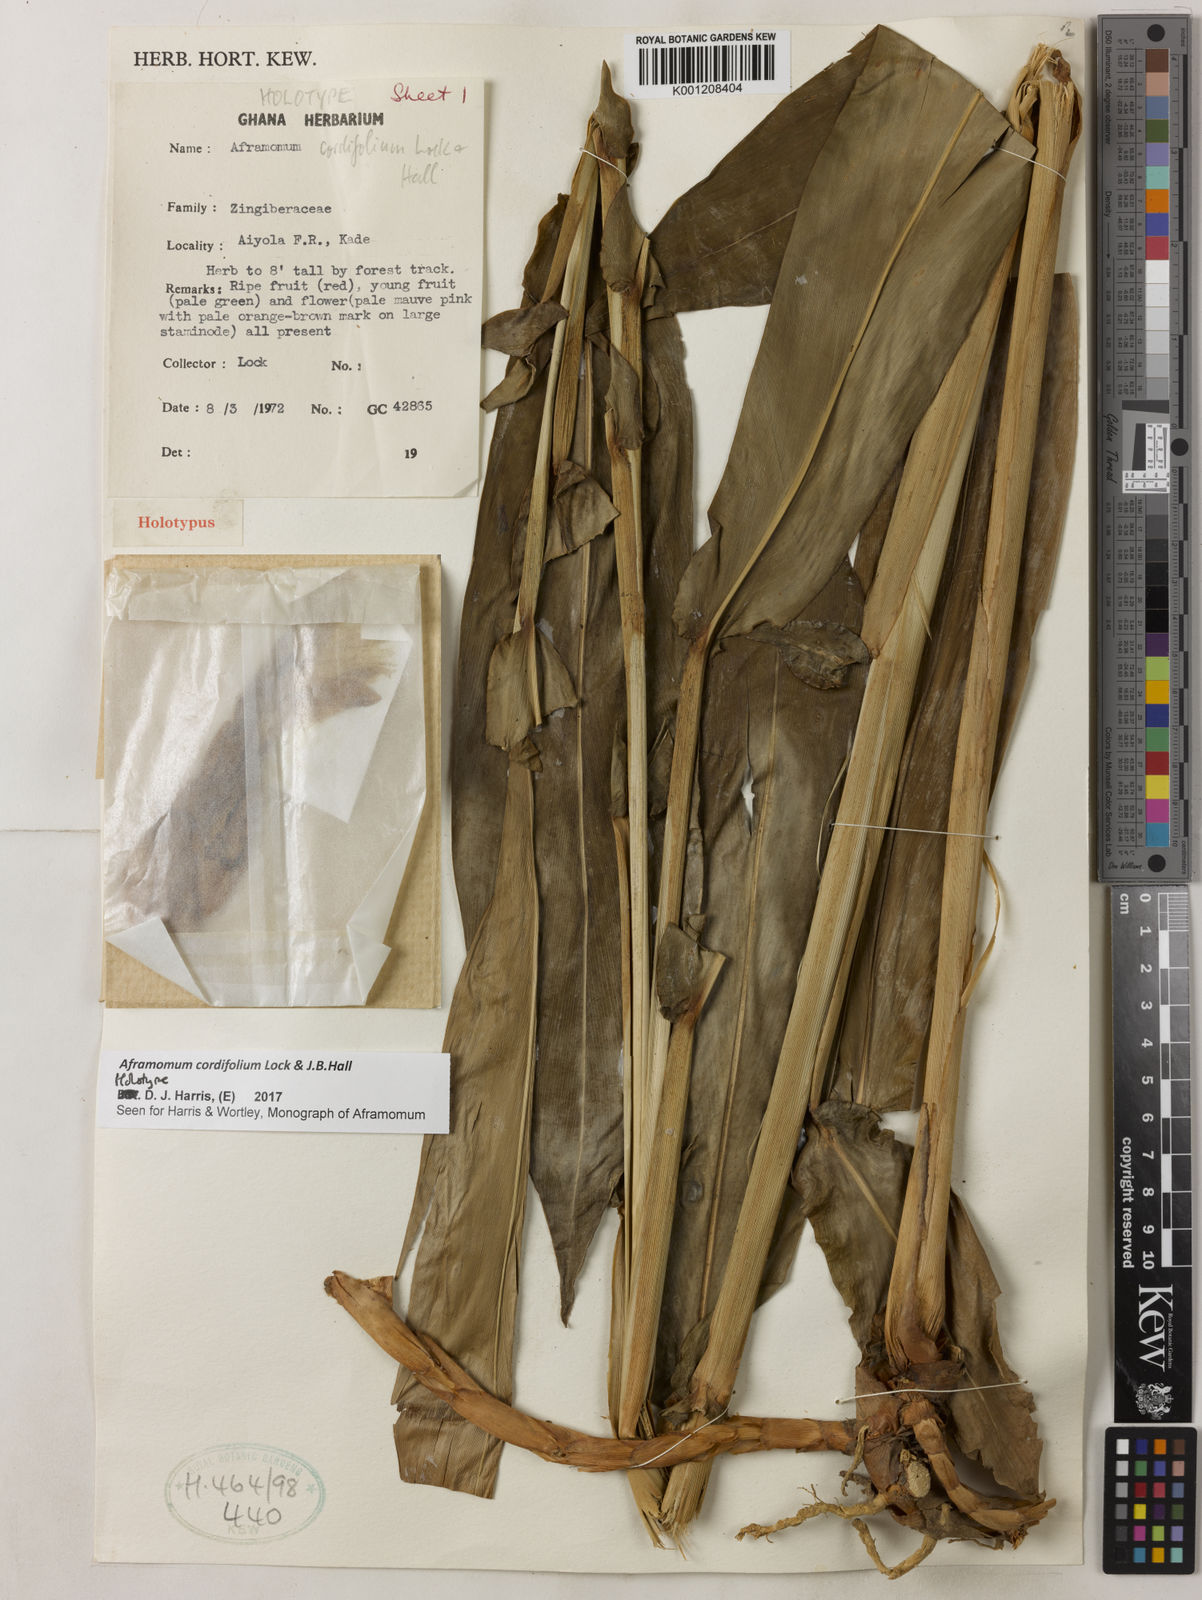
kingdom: Plantae
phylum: Tracheophyta
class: Liliopsida
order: Zingiberales
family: Zingiberaceae
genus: Aframomum
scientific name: Aframomum cordifolium
